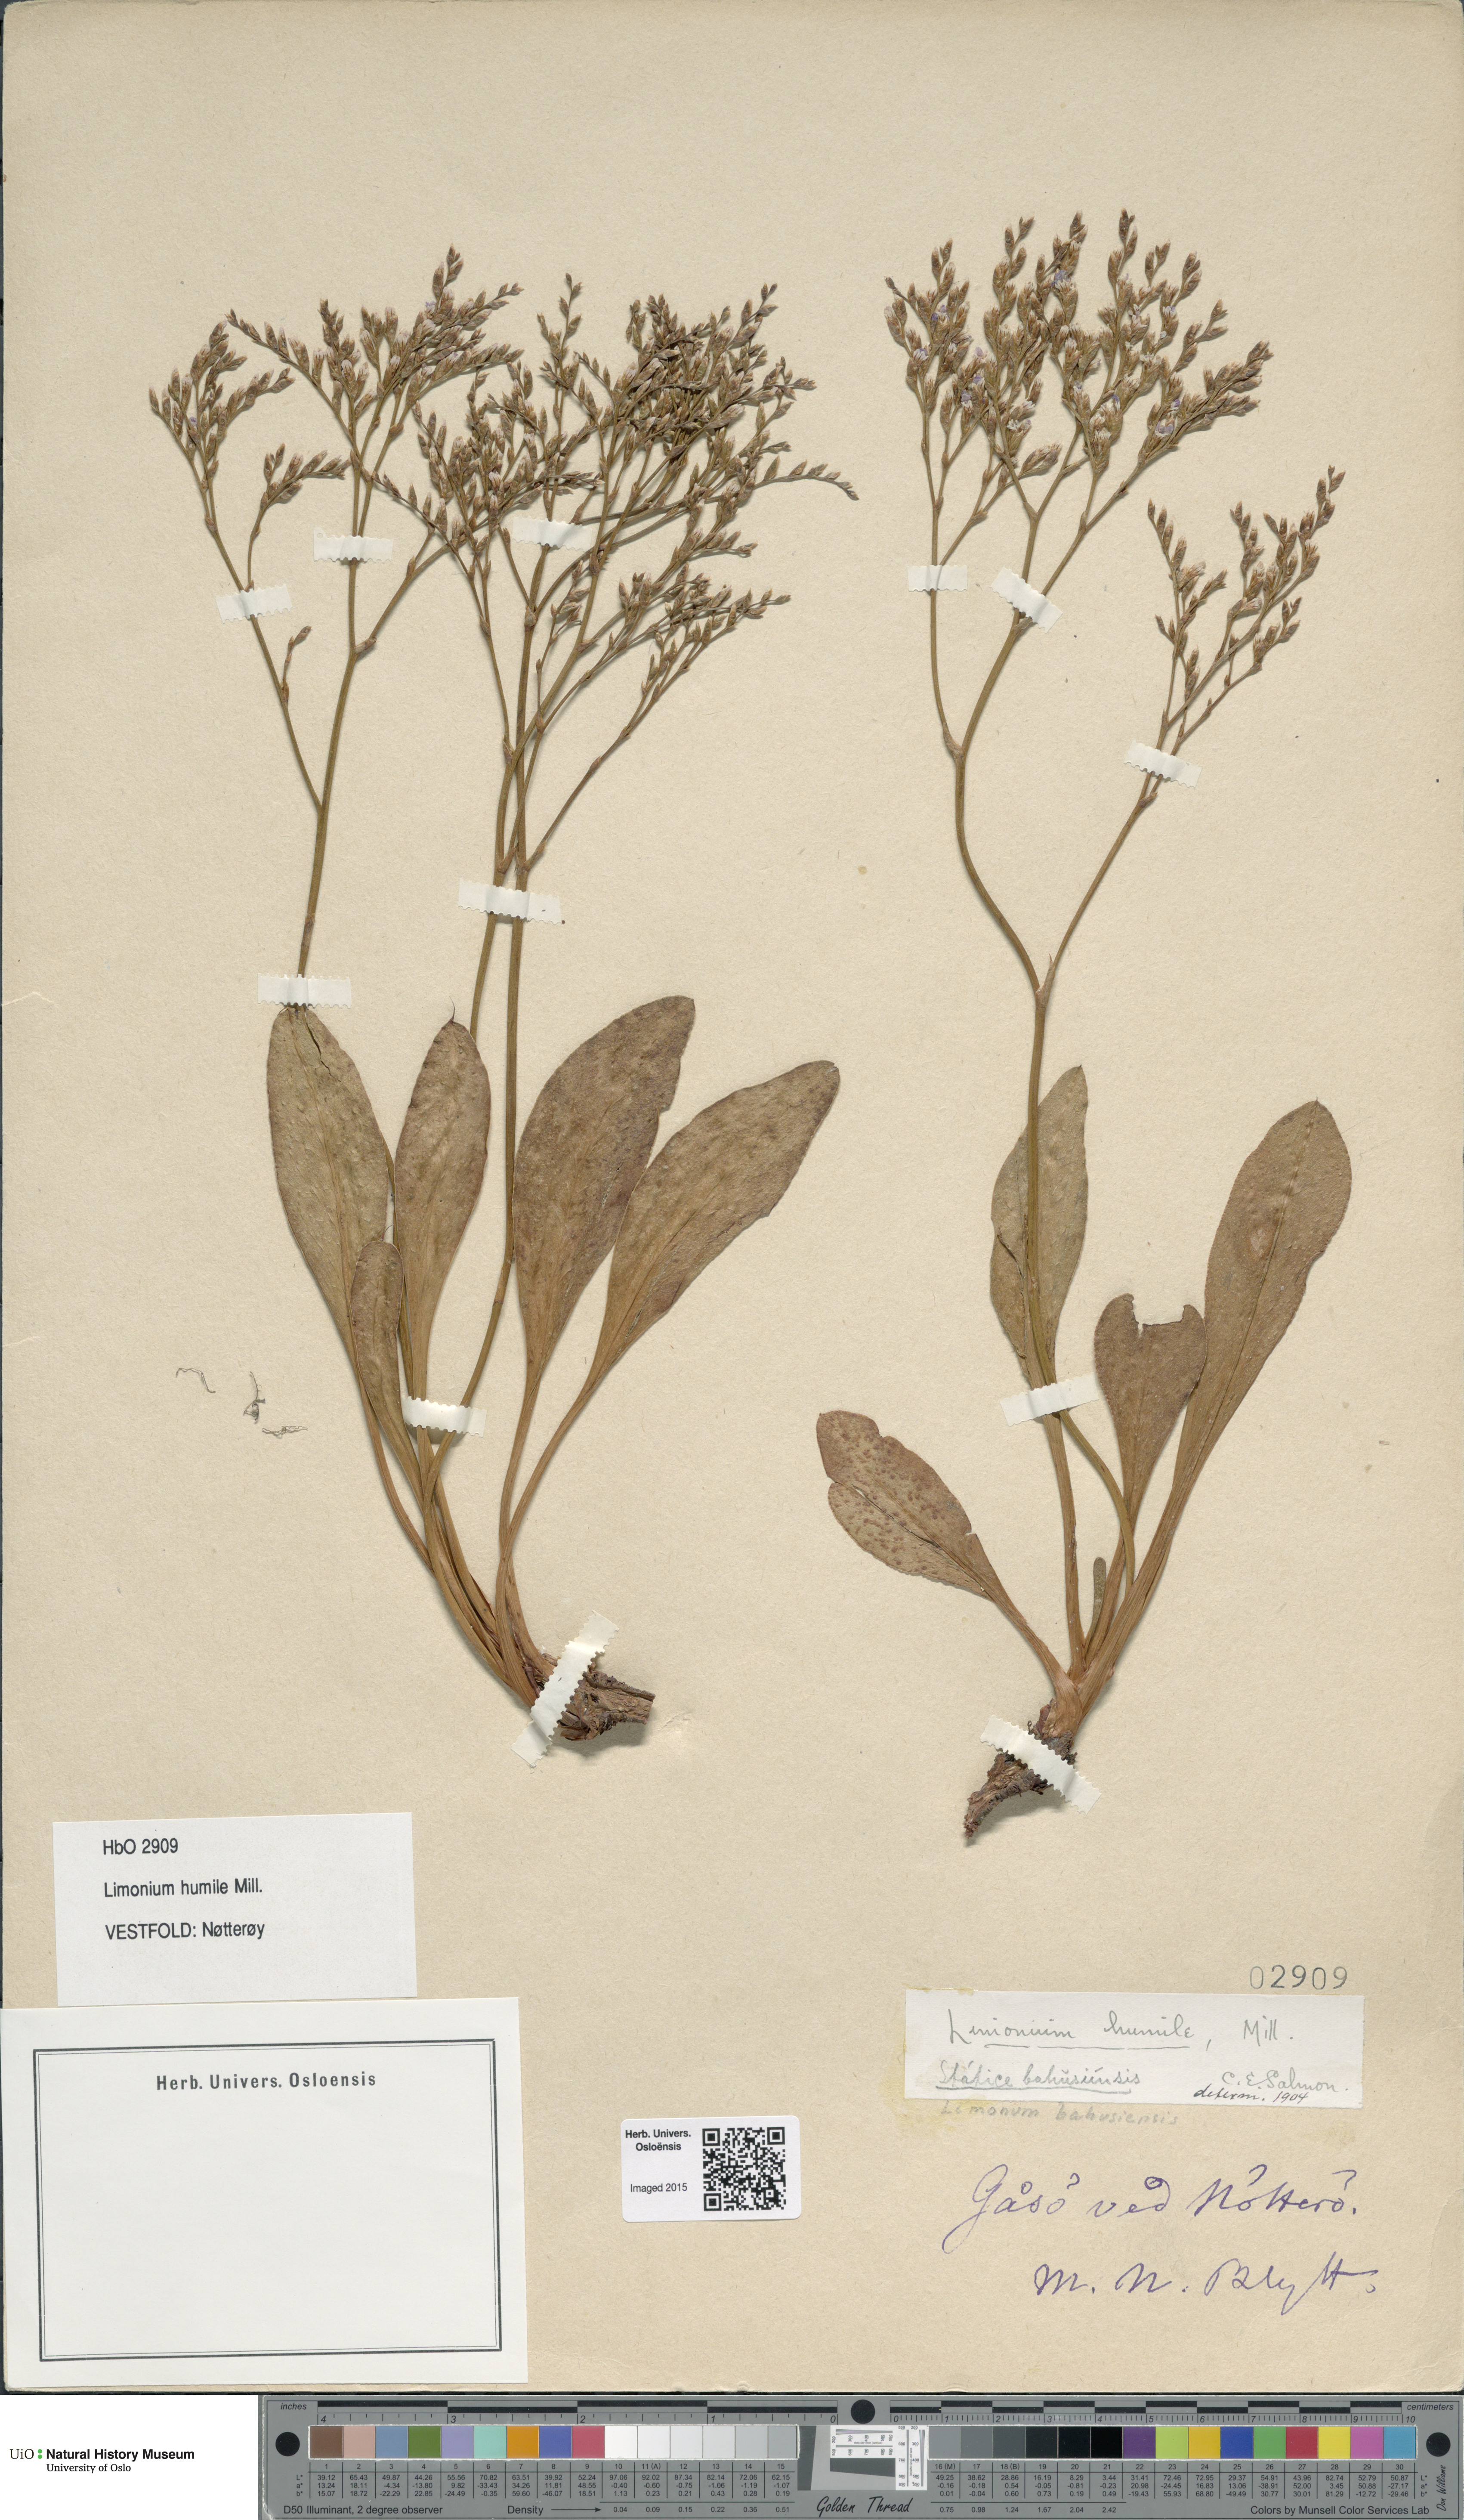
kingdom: Plantae
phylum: Tracheophyta
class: Magnoliopsida
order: Caryophyllales
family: Plumbaginaceae
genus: Limonium
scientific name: Limonium humile
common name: Lax-flowered sea-lavender
